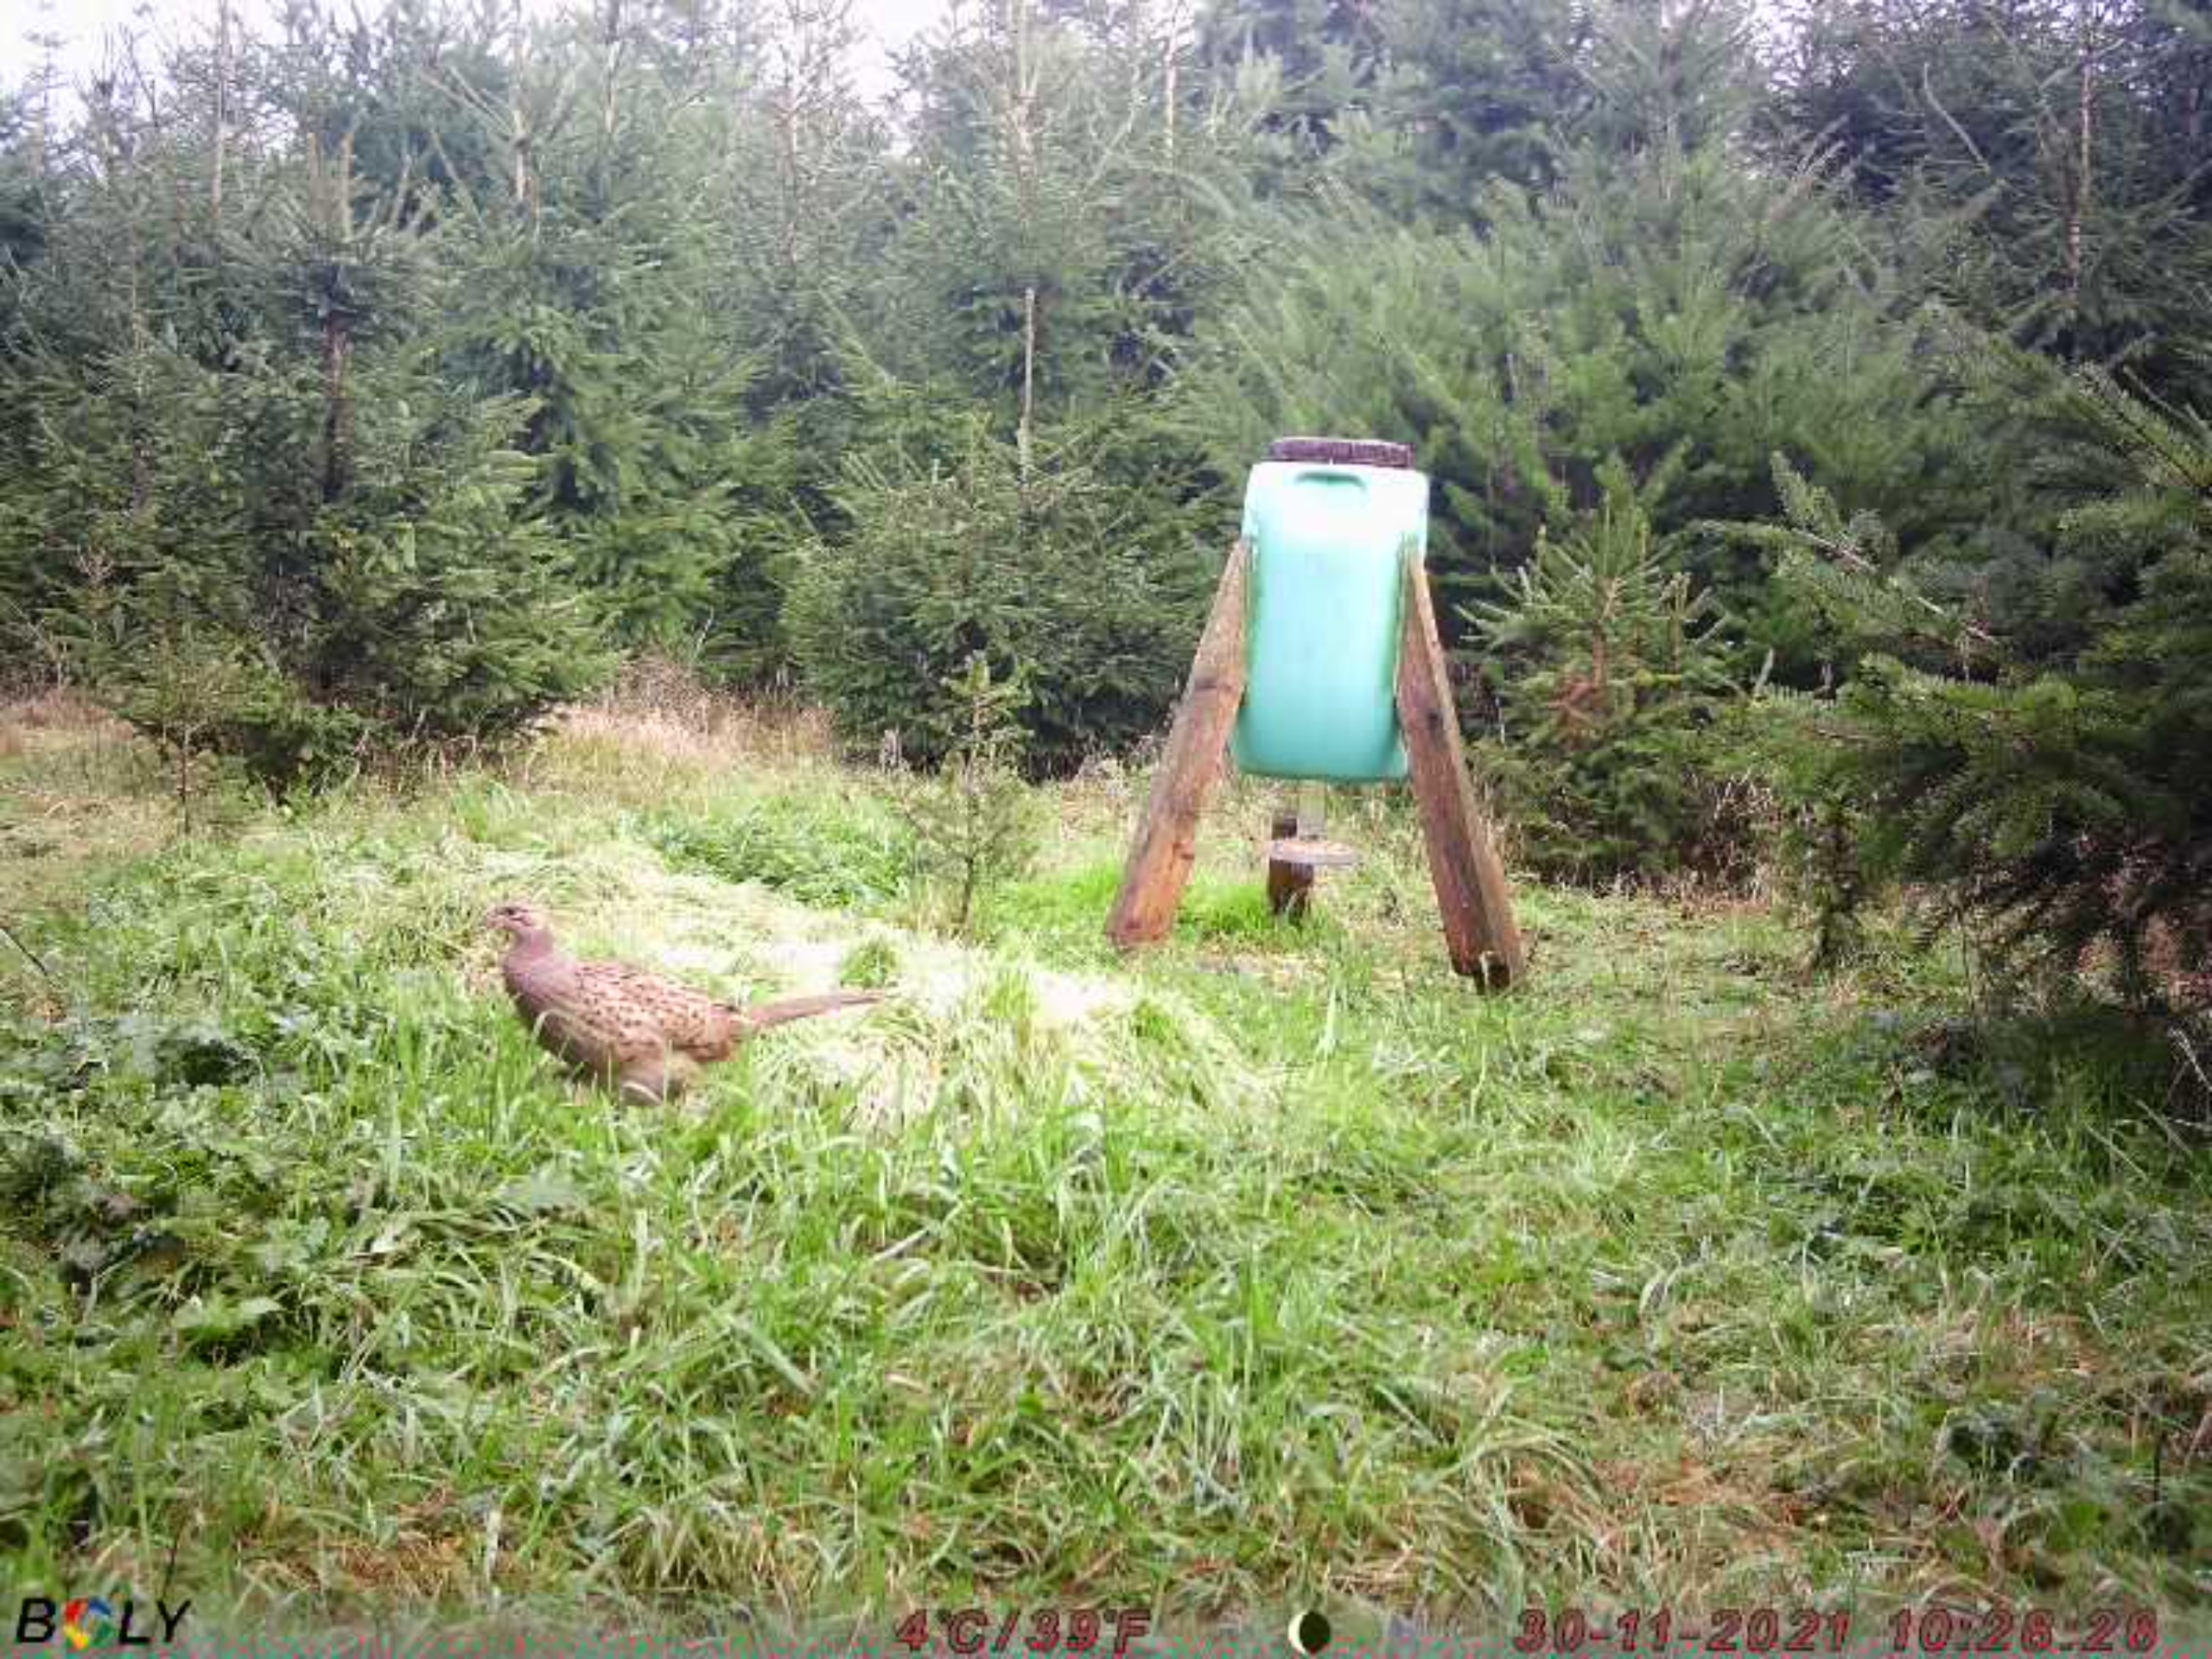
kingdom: Animalia
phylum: Chordata
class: Aves
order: Galliformes
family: Phasianidae
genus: Phasianus
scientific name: Phasianus colchicus
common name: Fasan
